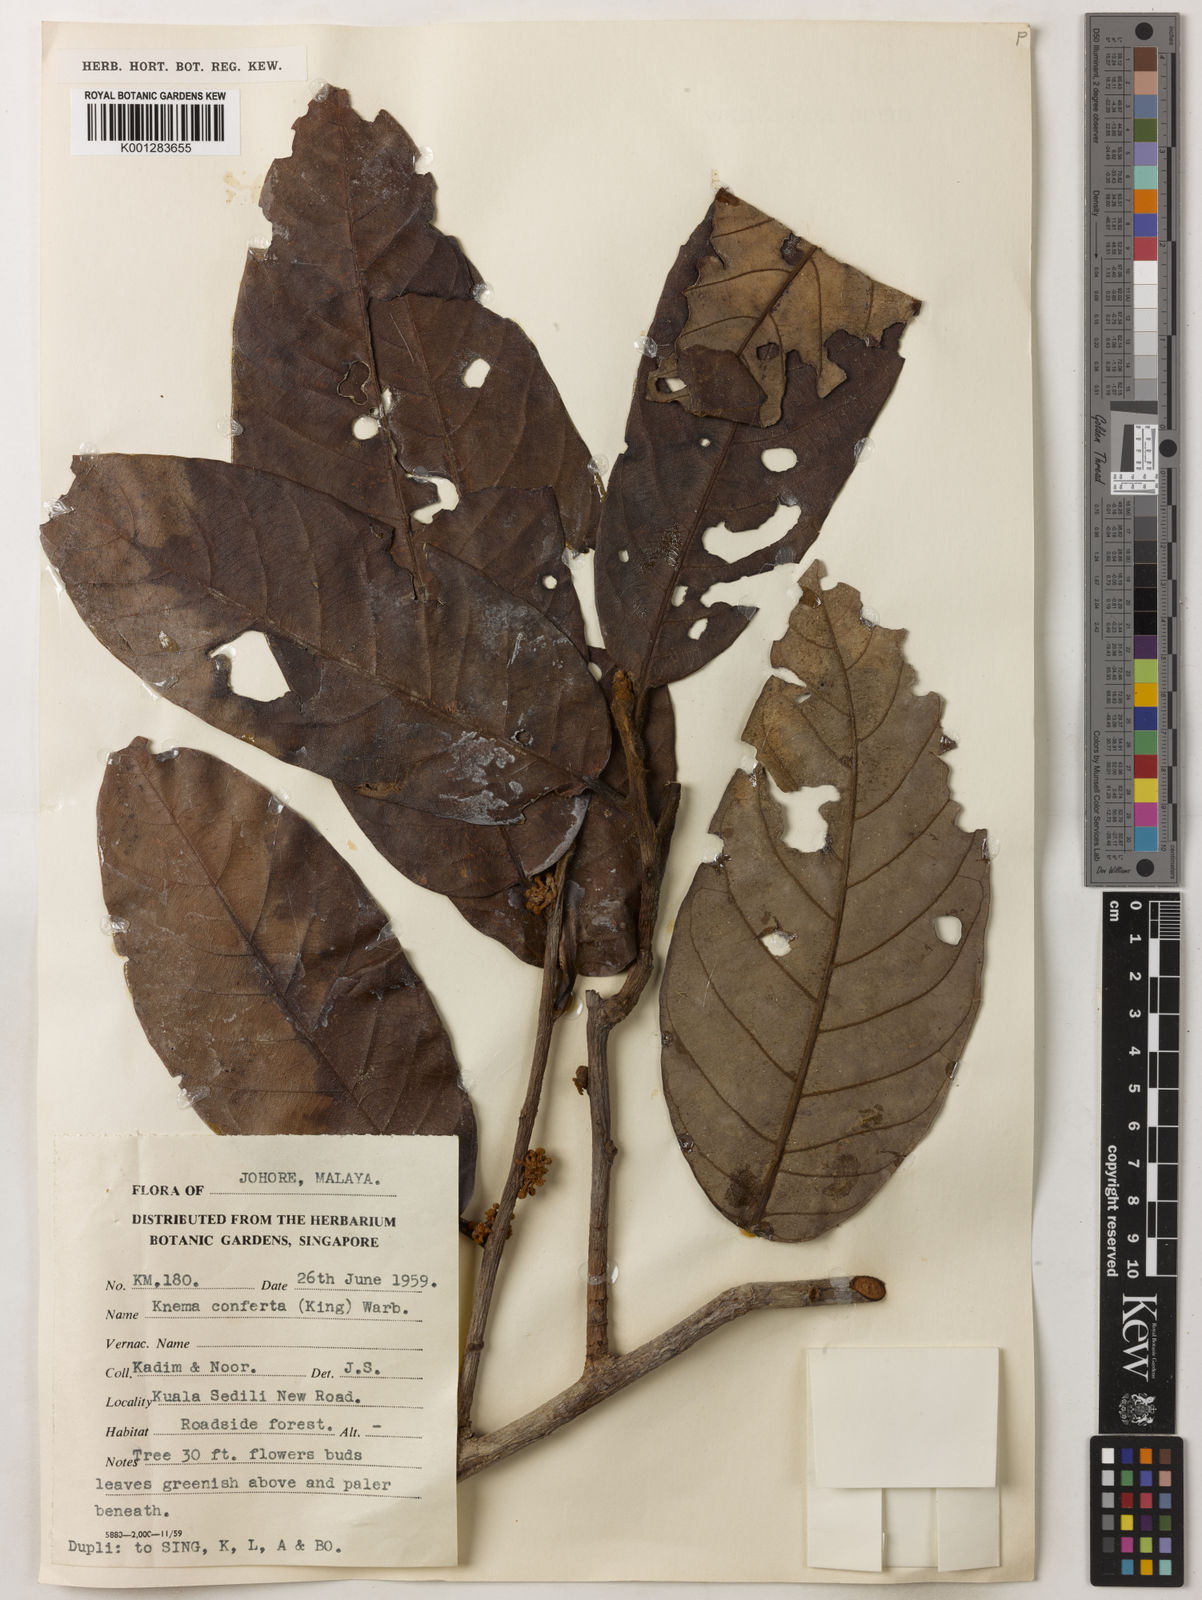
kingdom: Plantae
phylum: Tracheophyta
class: Magnoliopsida
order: Magnoliales
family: Myristicaceae
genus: Knema
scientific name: Knema conferta
